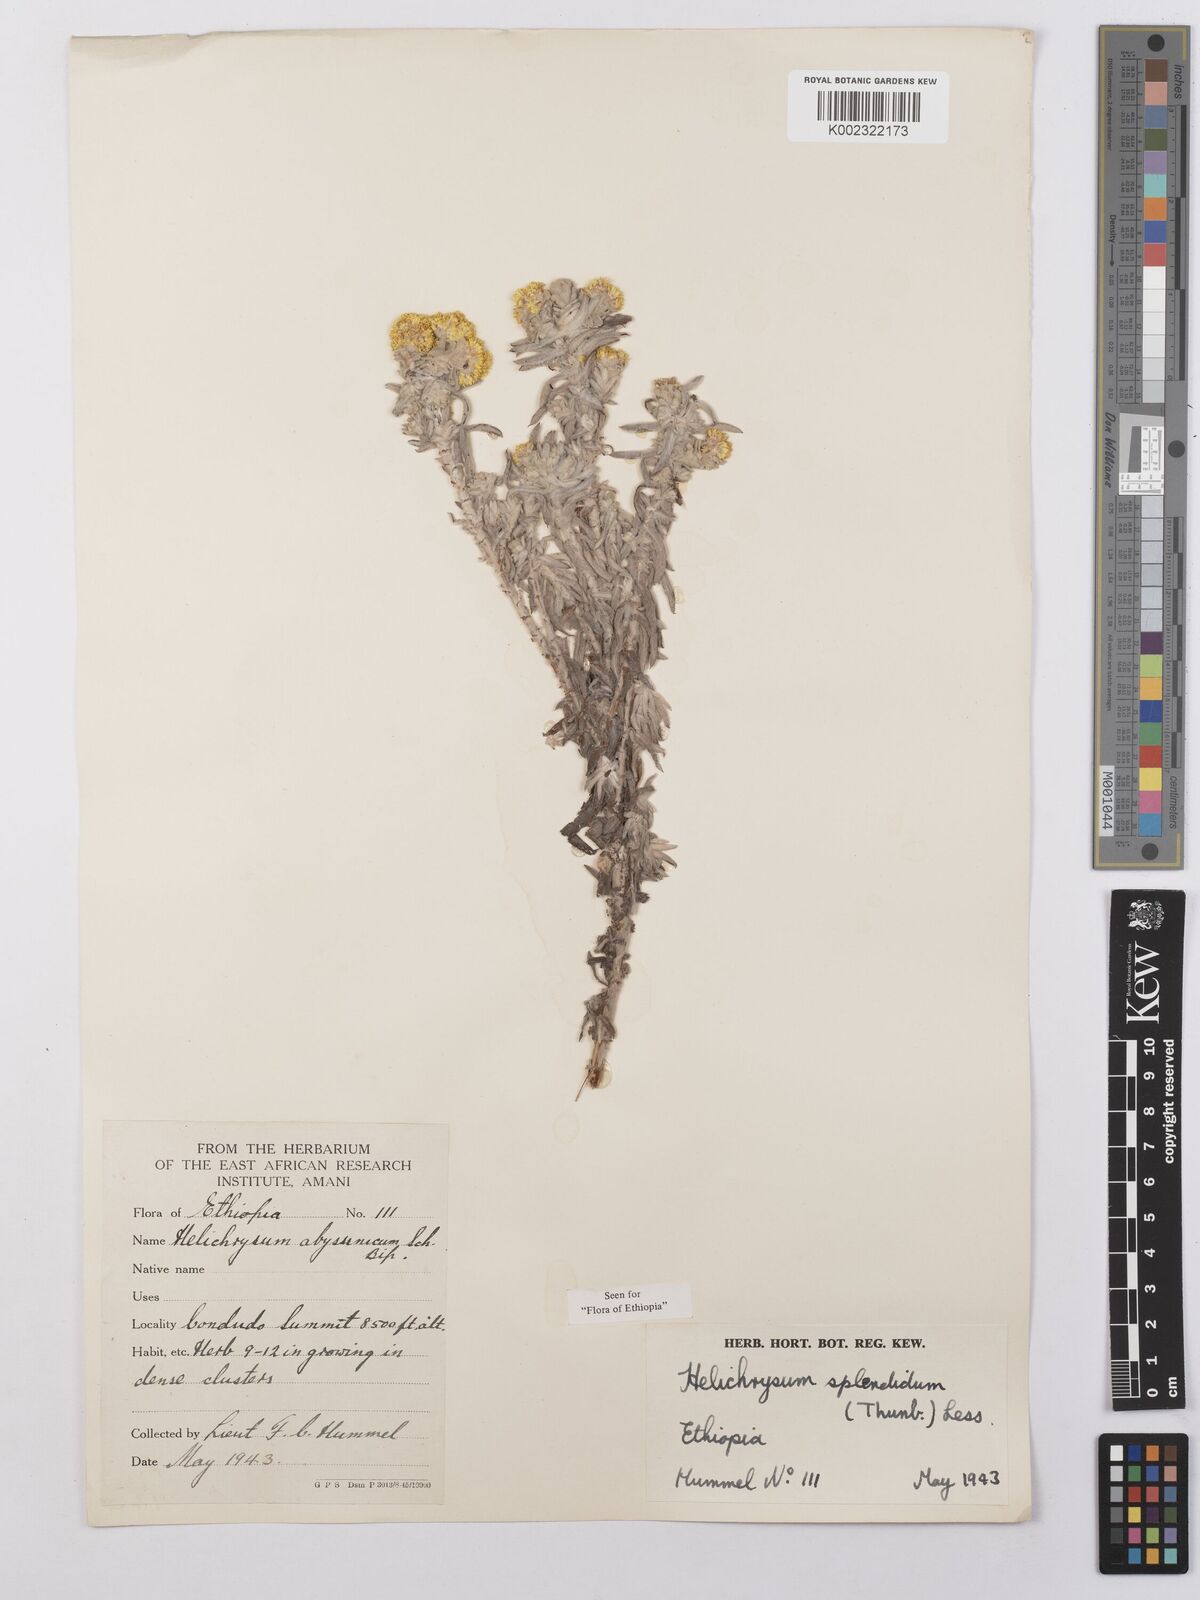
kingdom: Plantae
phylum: Tracheophyta
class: Magnoliopsida
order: Asterales
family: Asteraceae
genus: Helichrysum
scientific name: Helichrysum splendidum
